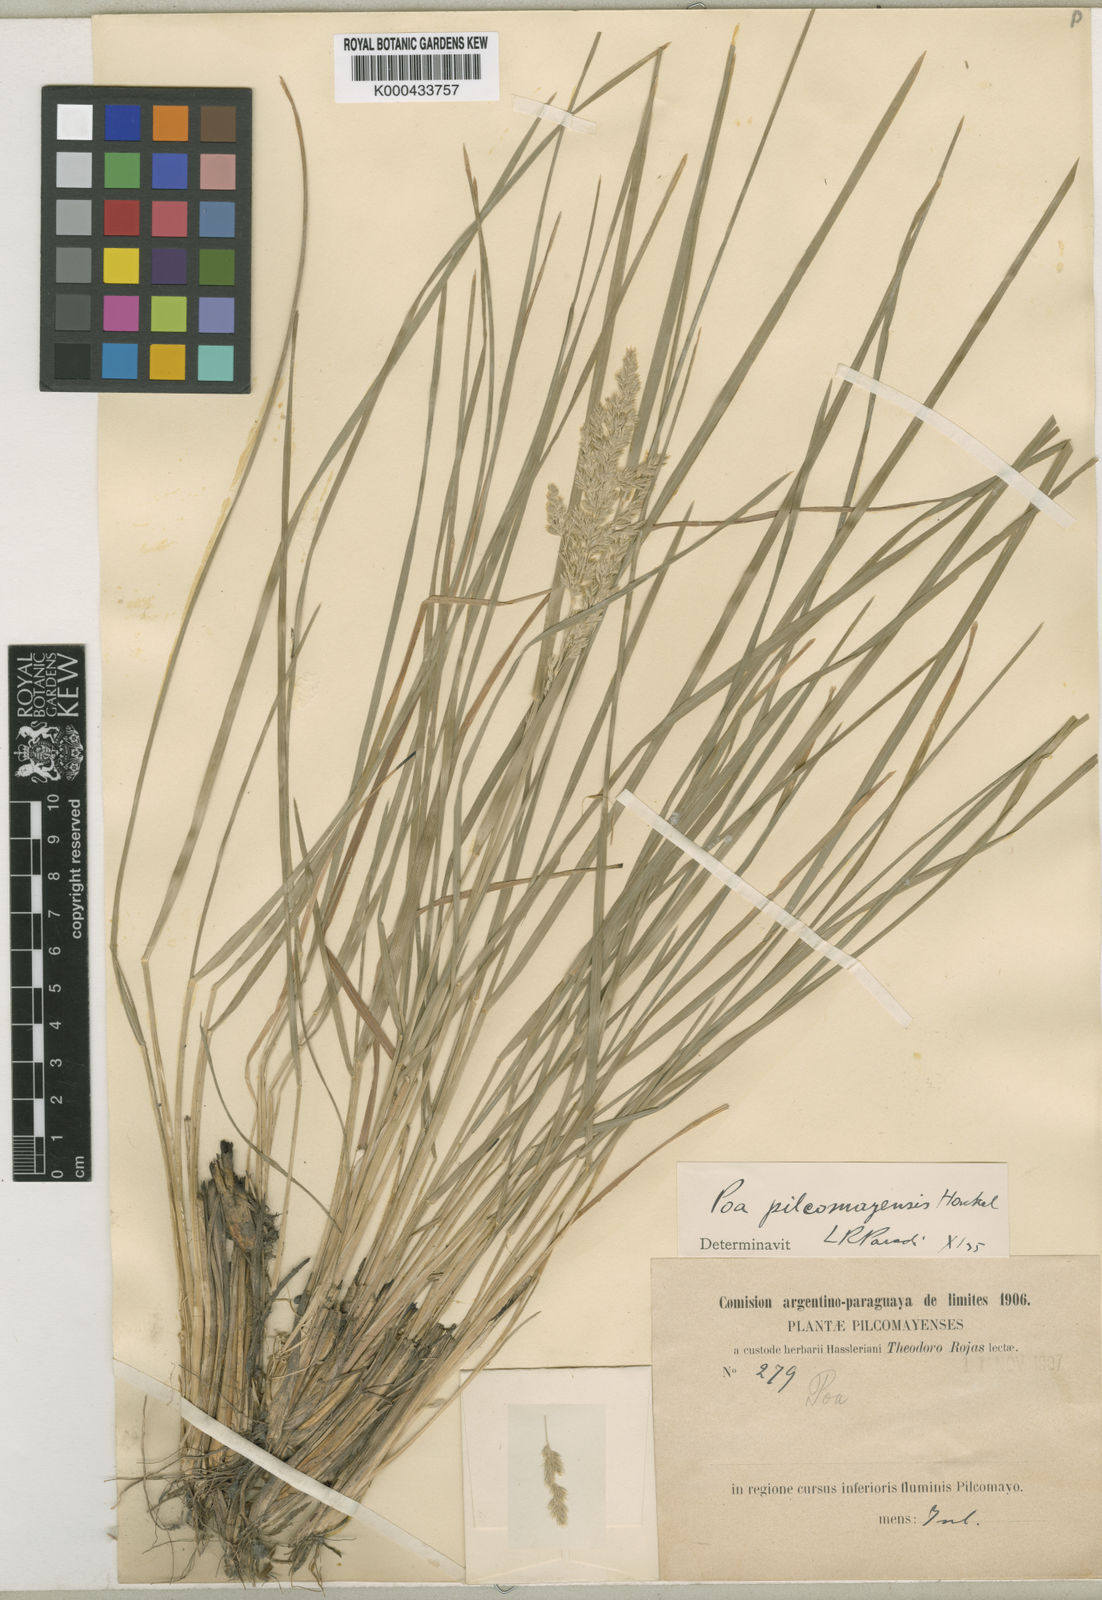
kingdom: Plantae
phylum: Tracheophyta
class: Liliopsida
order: Poales
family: Poaceae
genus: Poa
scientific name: Poa pilcomayensis
